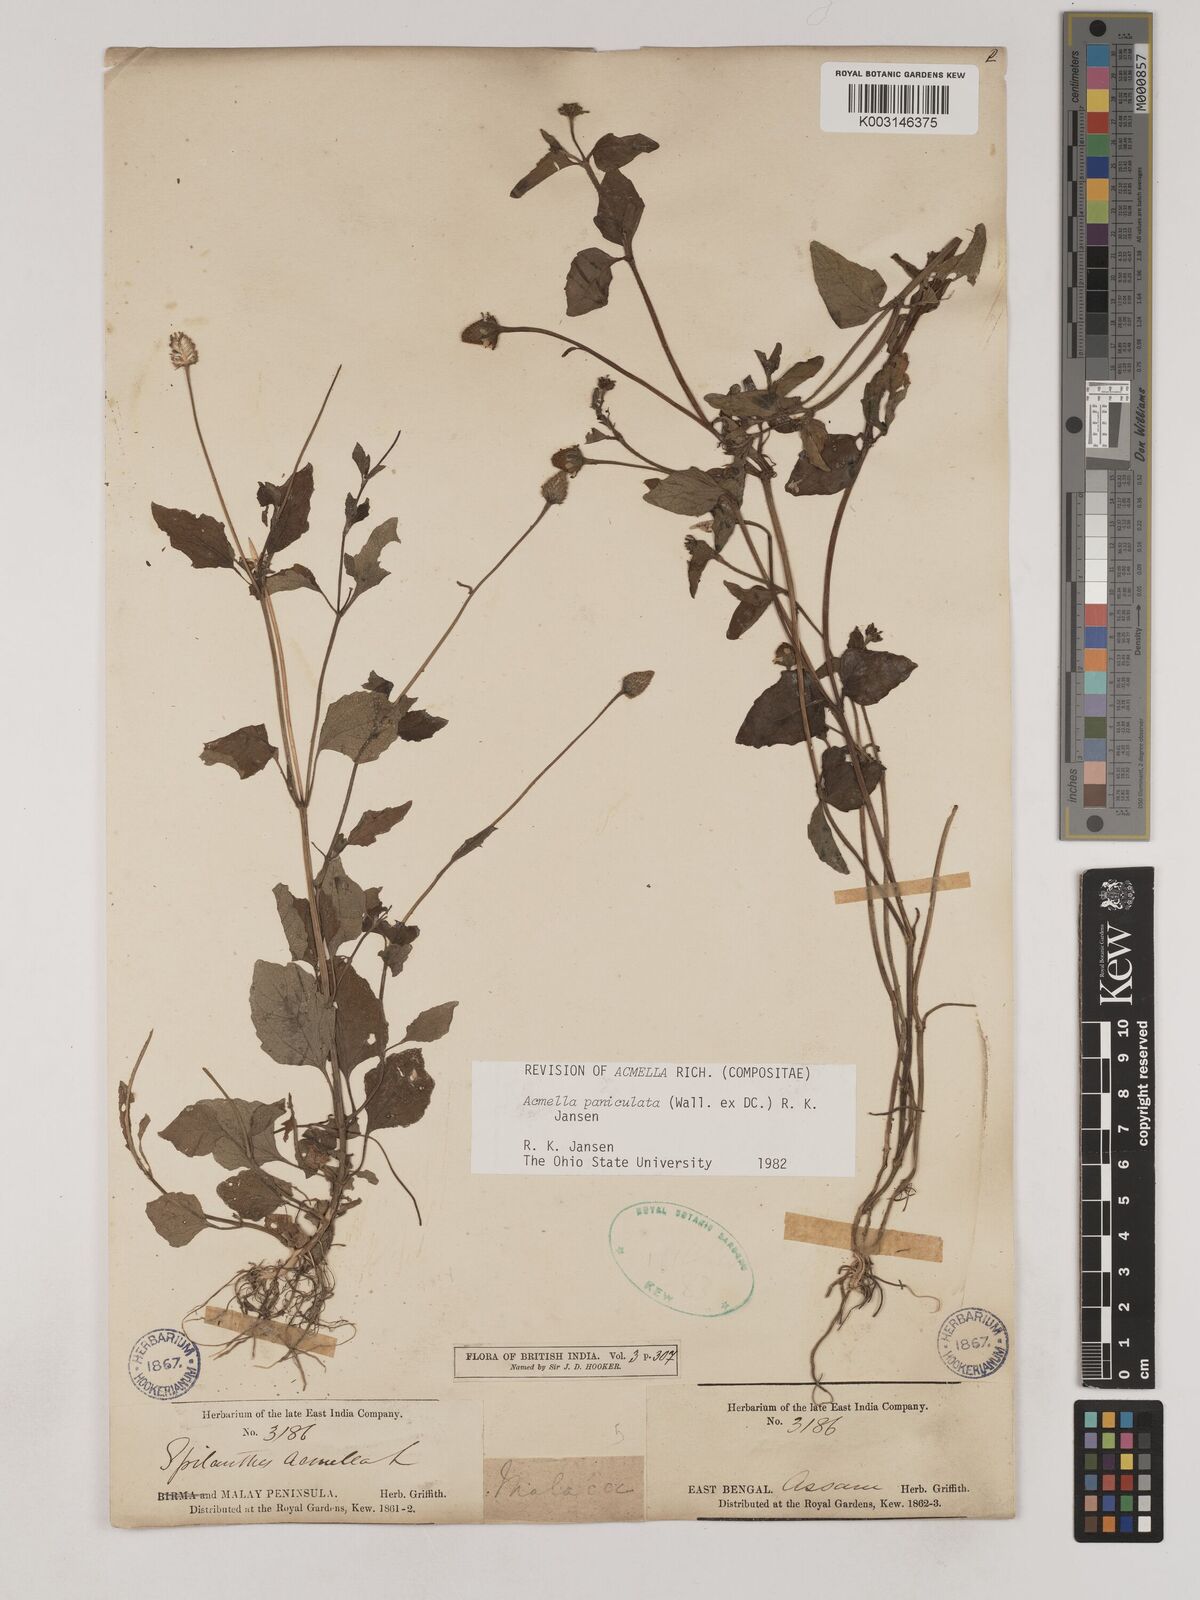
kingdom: Plantae
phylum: Tracheophyta
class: Magnoliopsida
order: Asterales
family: Asteraceae
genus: Acmella
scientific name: Acmella paniculata
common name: Panicled spot flower
